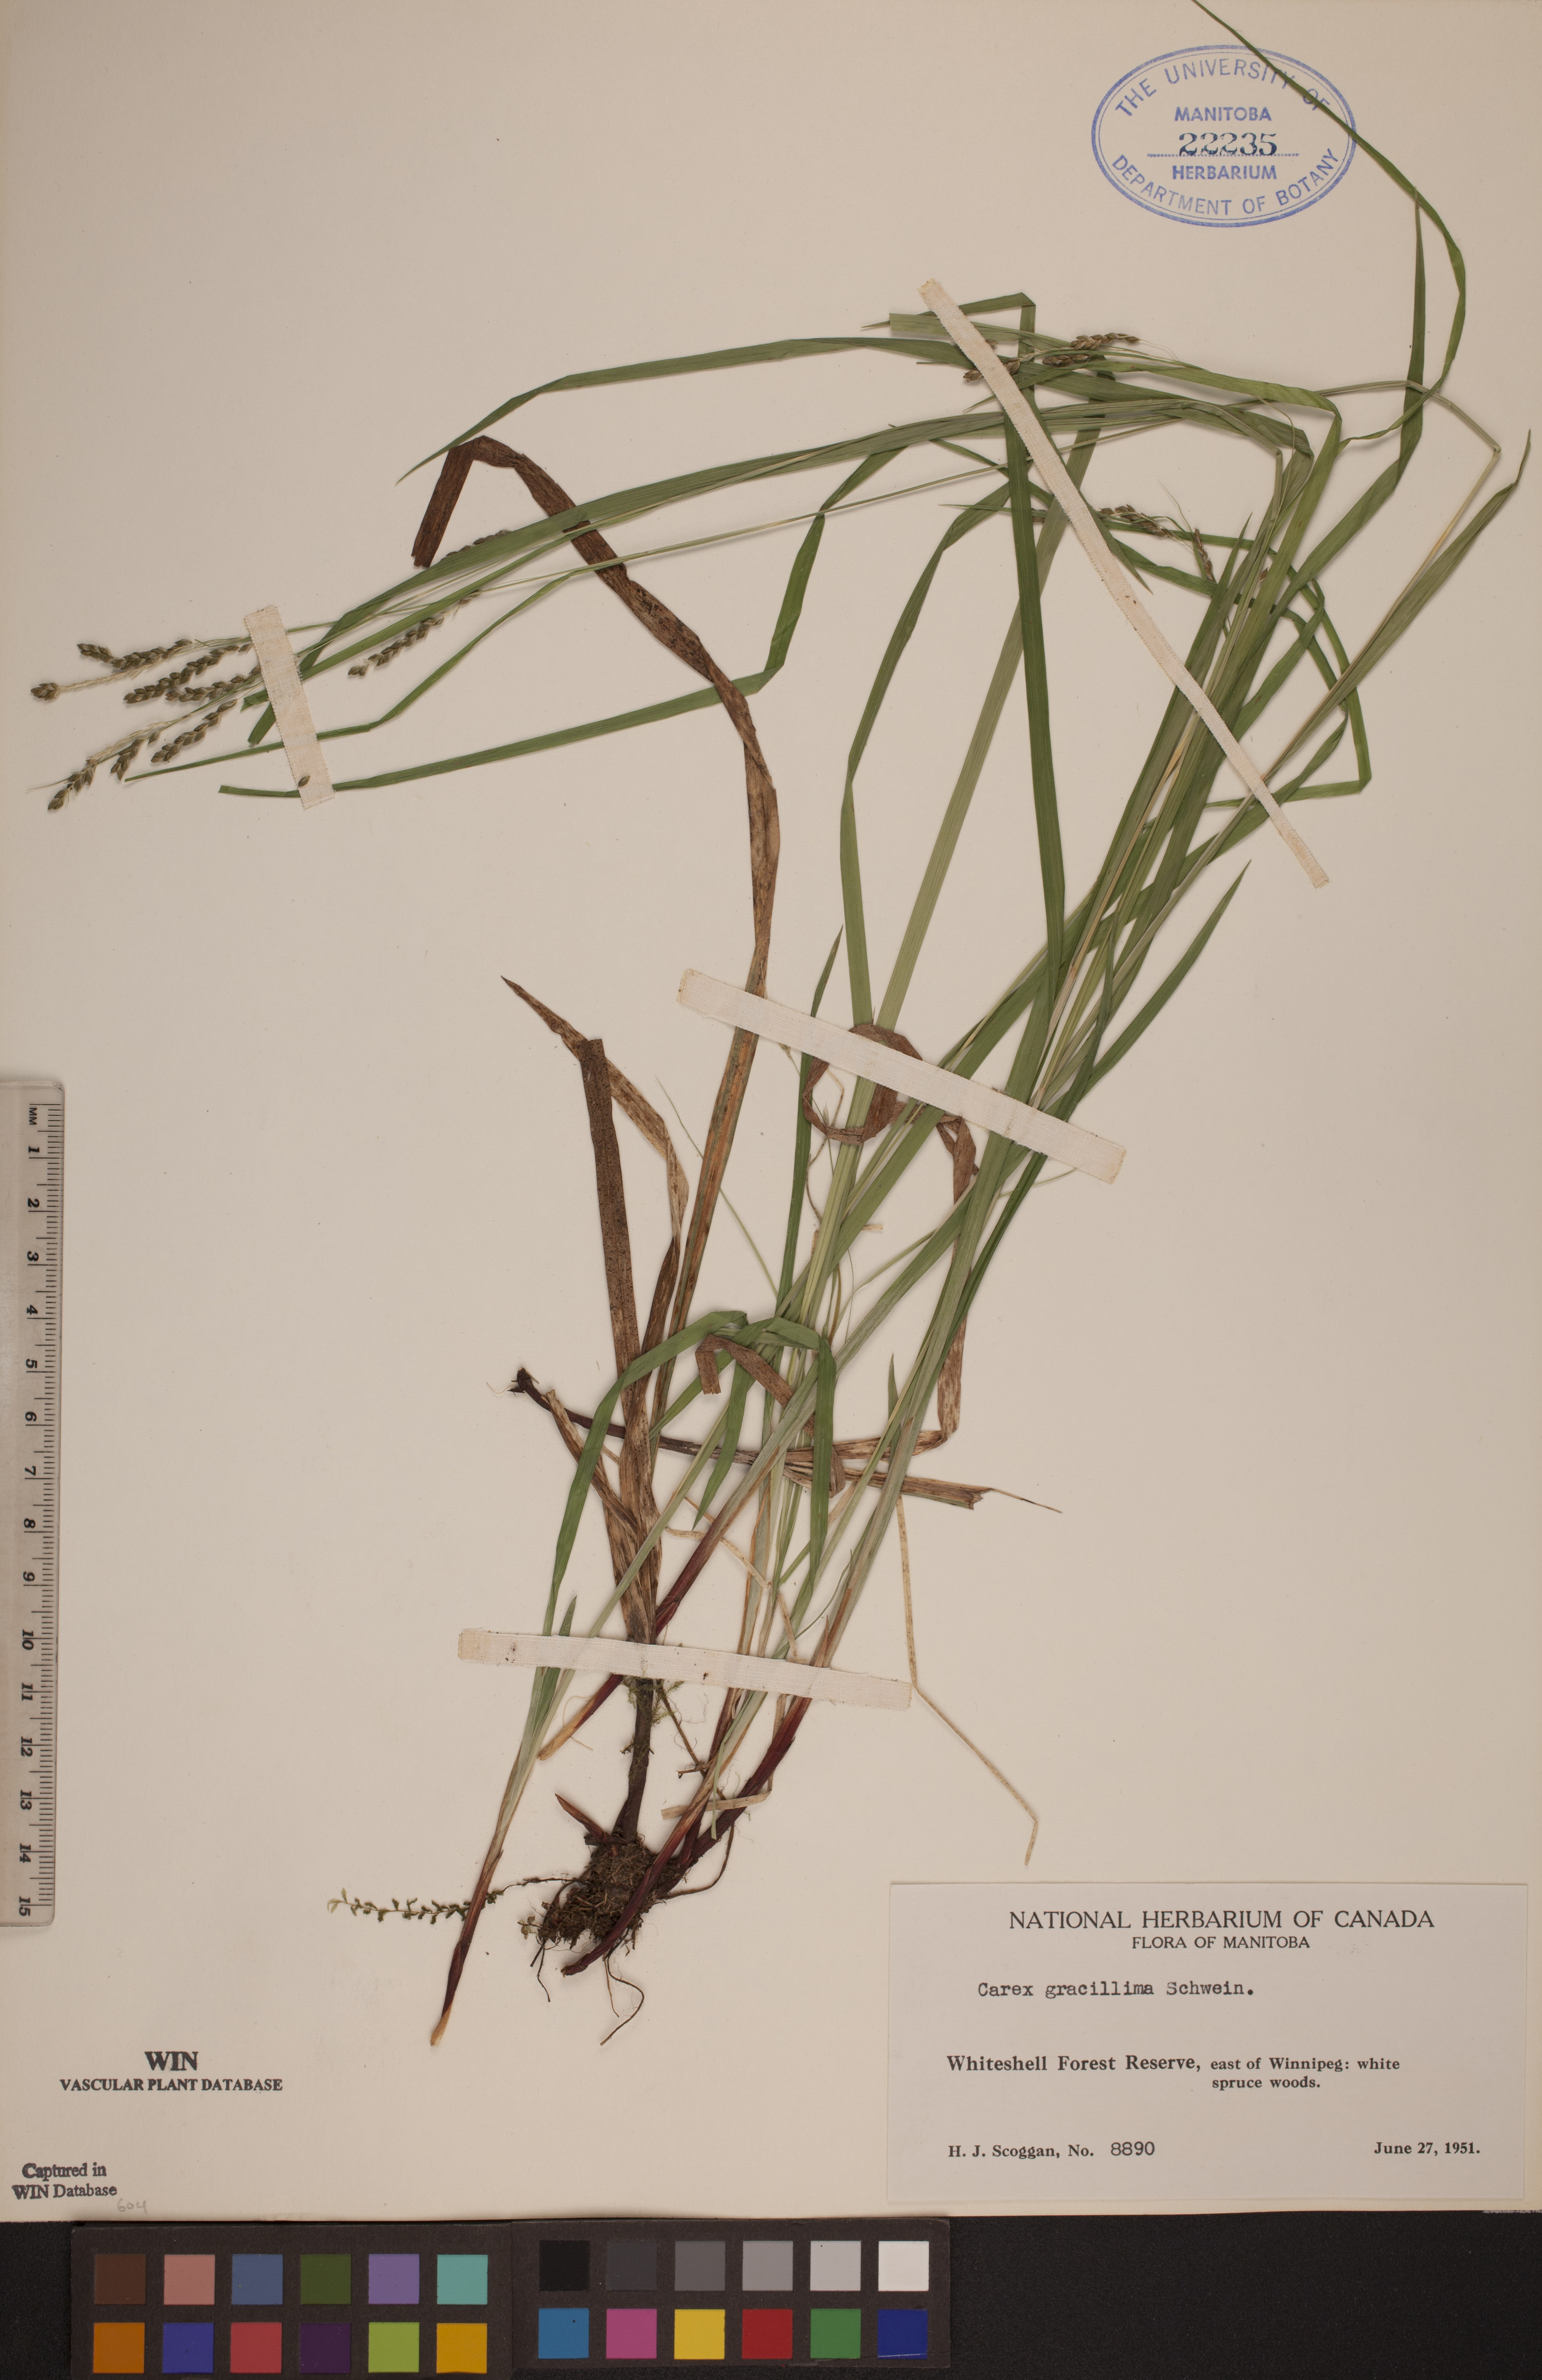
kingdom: Plantae
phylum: Tracheophyta
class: Liliopsida
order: Poales
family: Cyperaceae
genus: Carex
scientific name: Carex gracillima
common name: Graceful sedge
